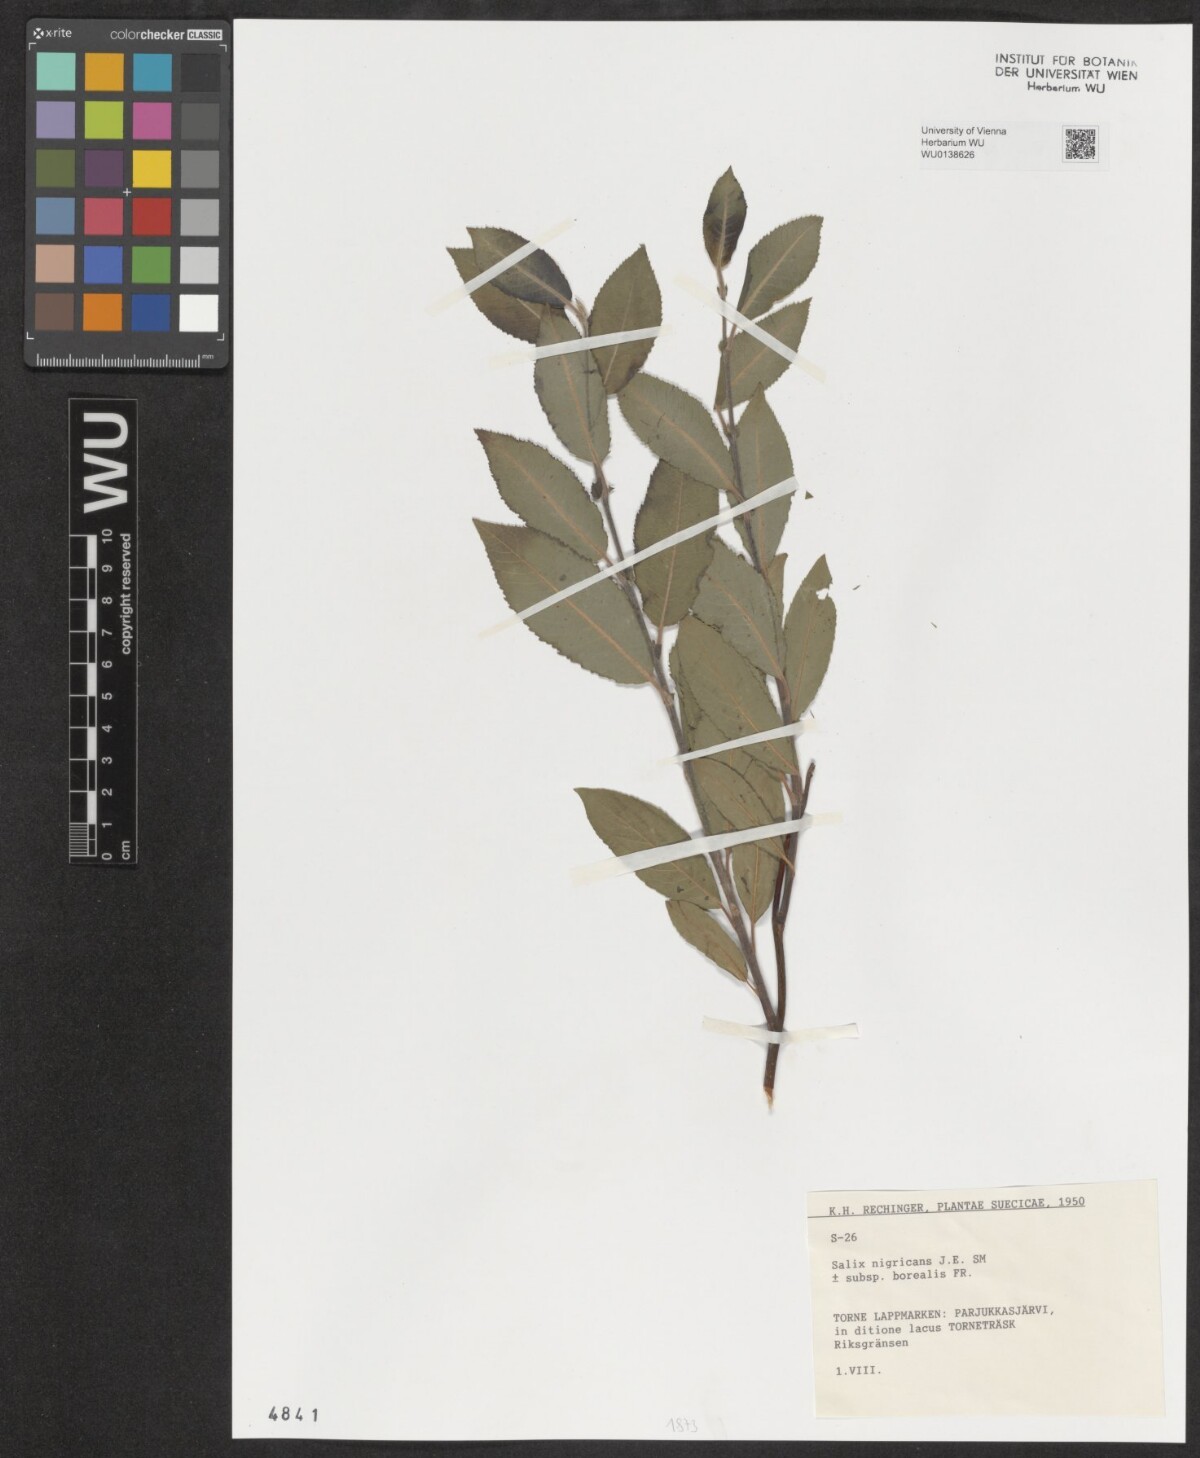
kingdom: Plantae
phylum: Tracheophyta
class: Magnoliopsida
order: Malpighiales
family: Salicaceae
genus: Salix
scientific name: Salix myrsinifolia
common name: Dark-leaved willow
